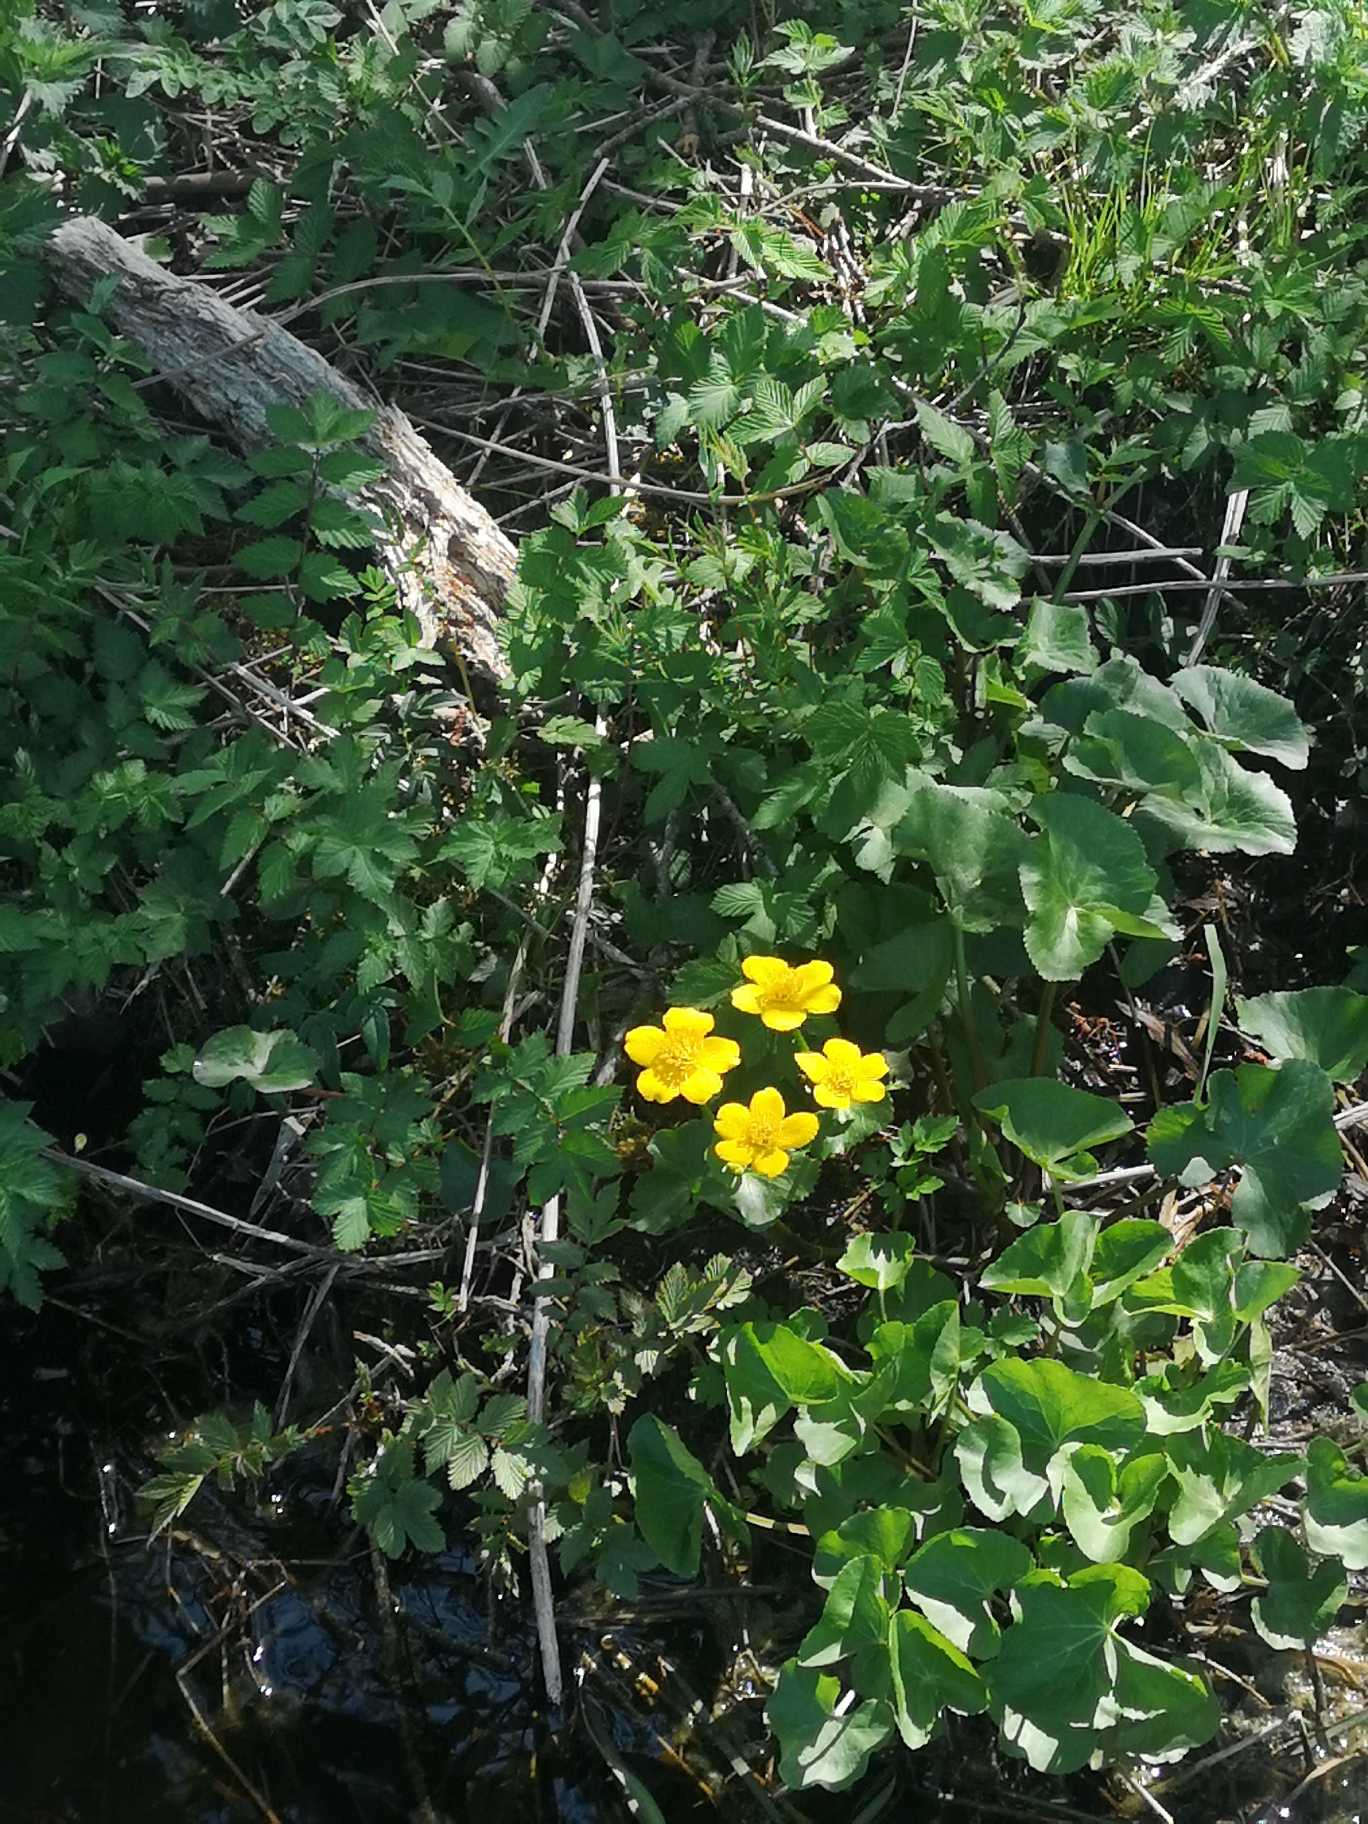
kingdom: Plantae
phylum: Tracheophyta
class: Magnoliopsida
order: Ranunculales
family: Ranunculaceae
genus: Caltha
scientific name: Caltha palustris
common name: Eng-kabbeleje
